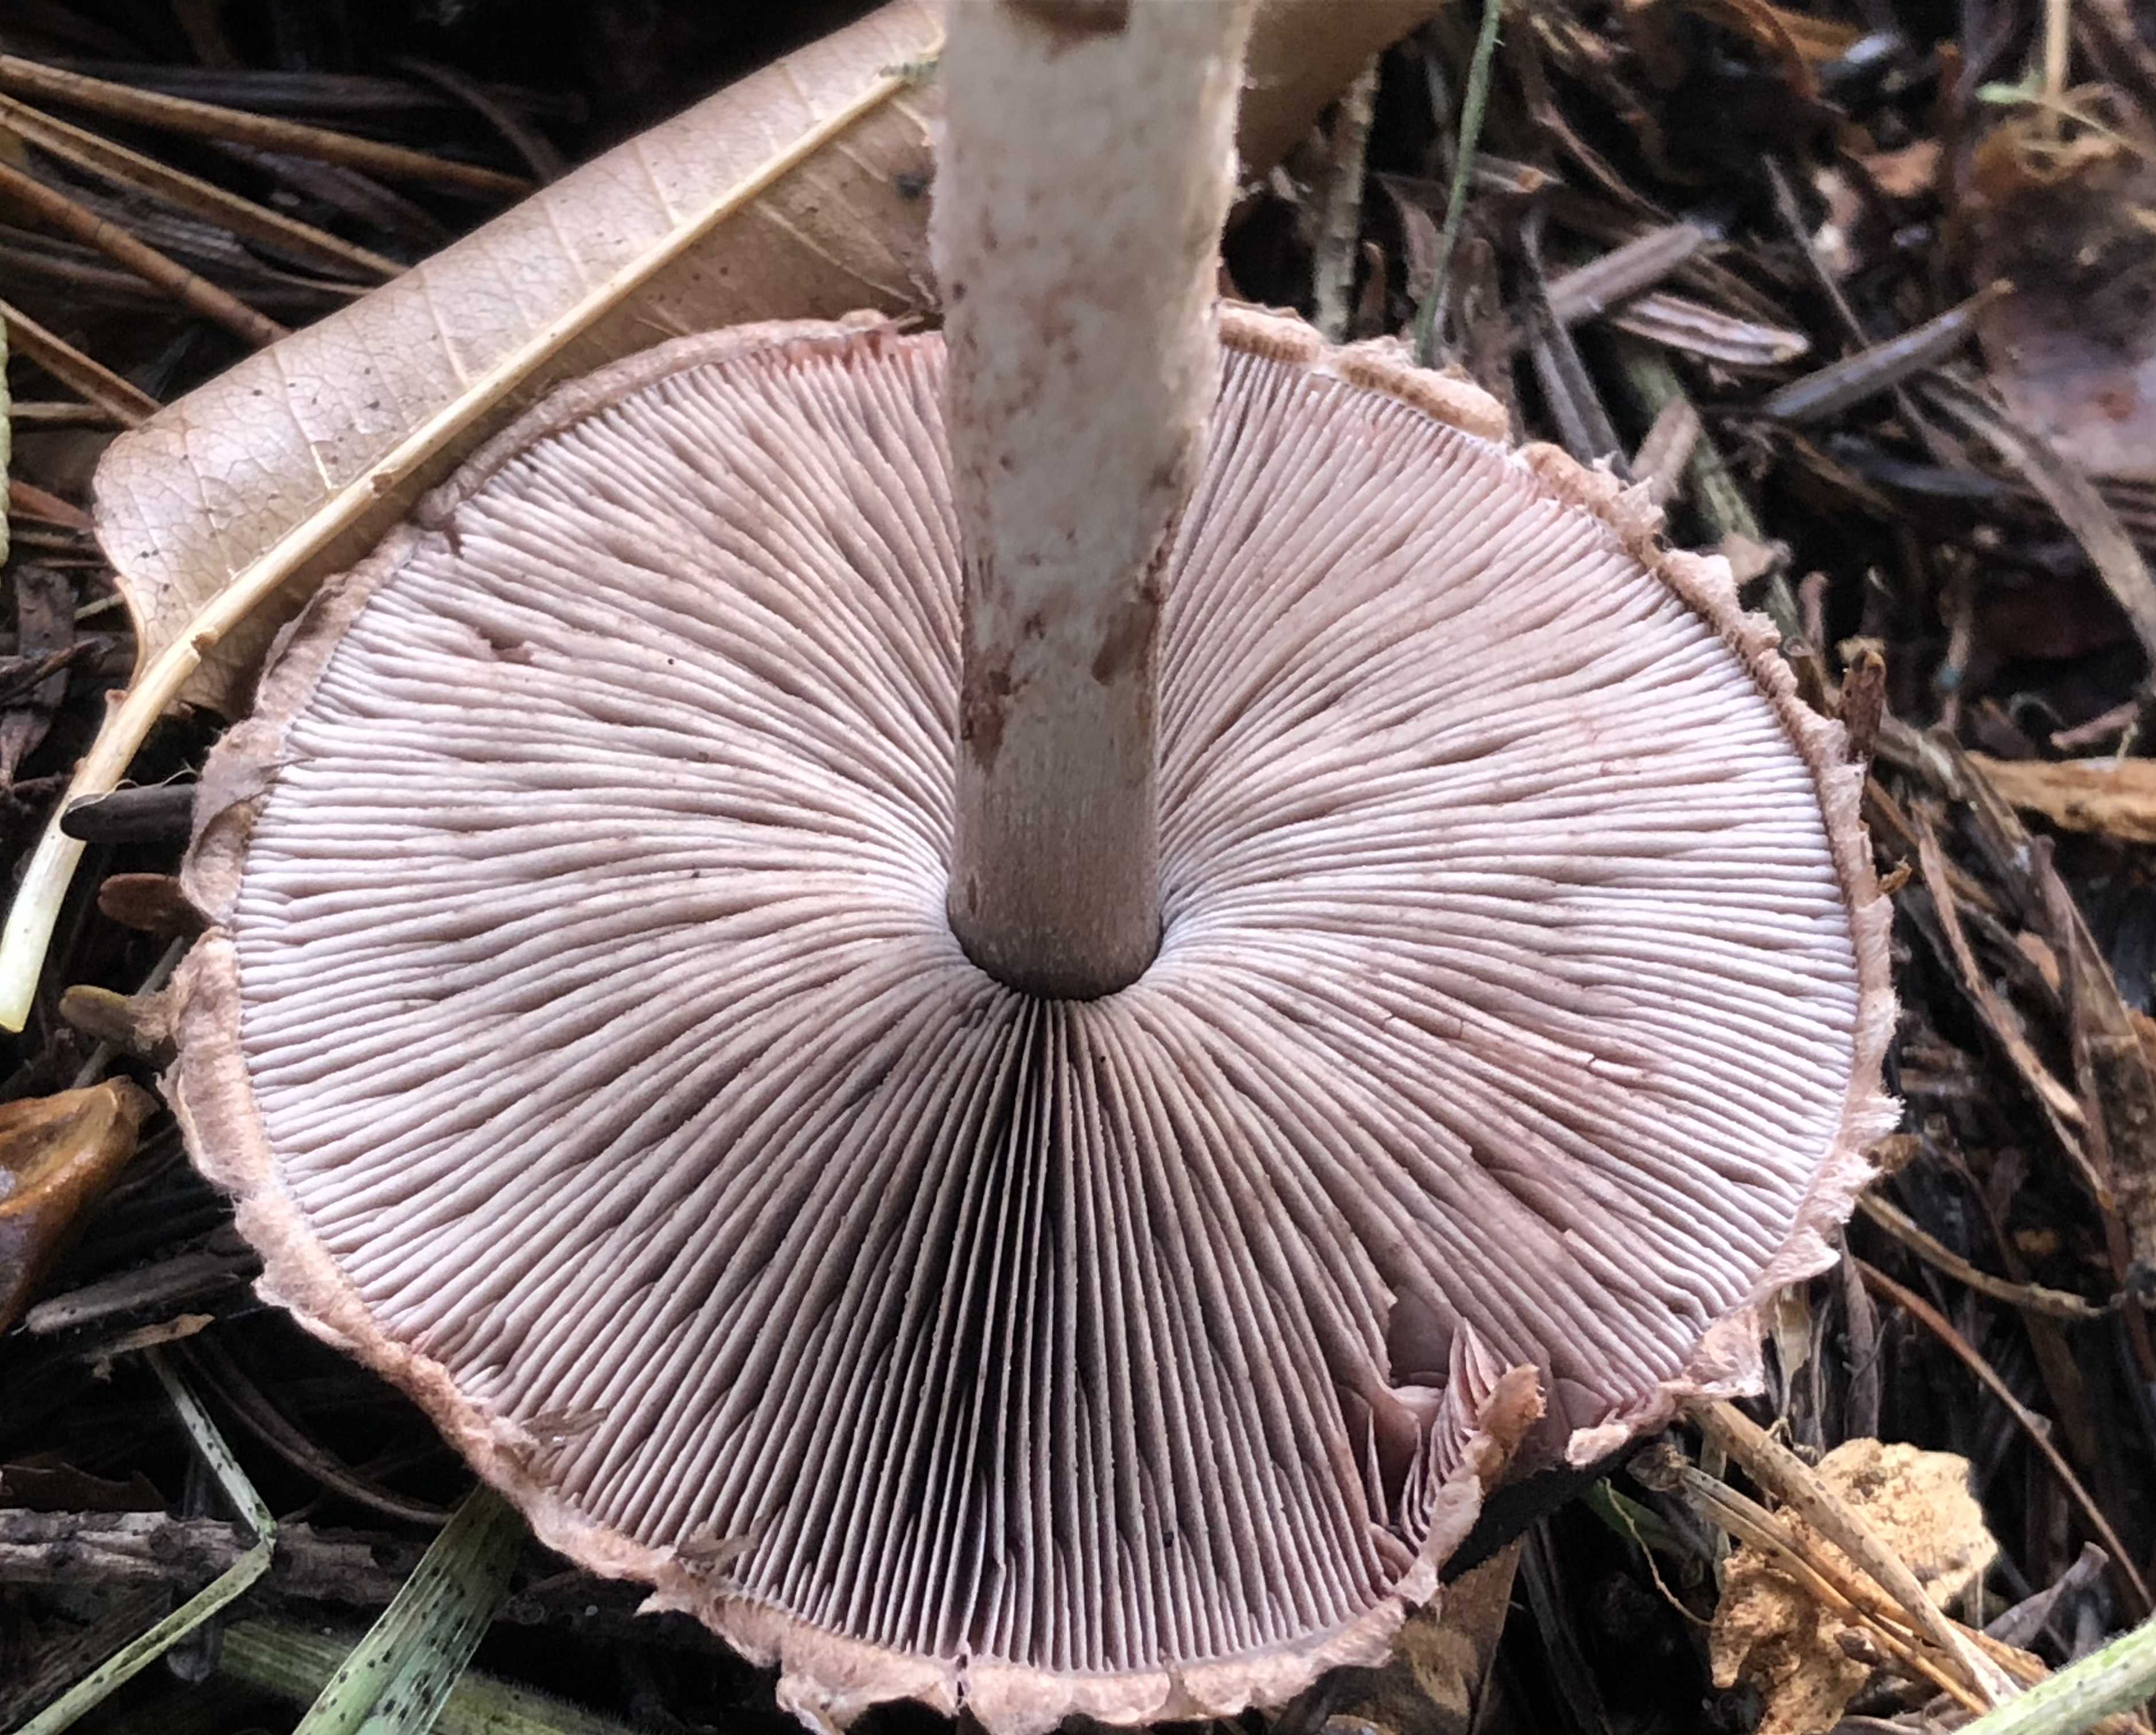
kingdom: Fungi
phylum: Basidiomycota
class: Agaricomycetes
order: Agaricales
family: Agaricaceae
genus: Agaricus
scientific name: Agaricus
